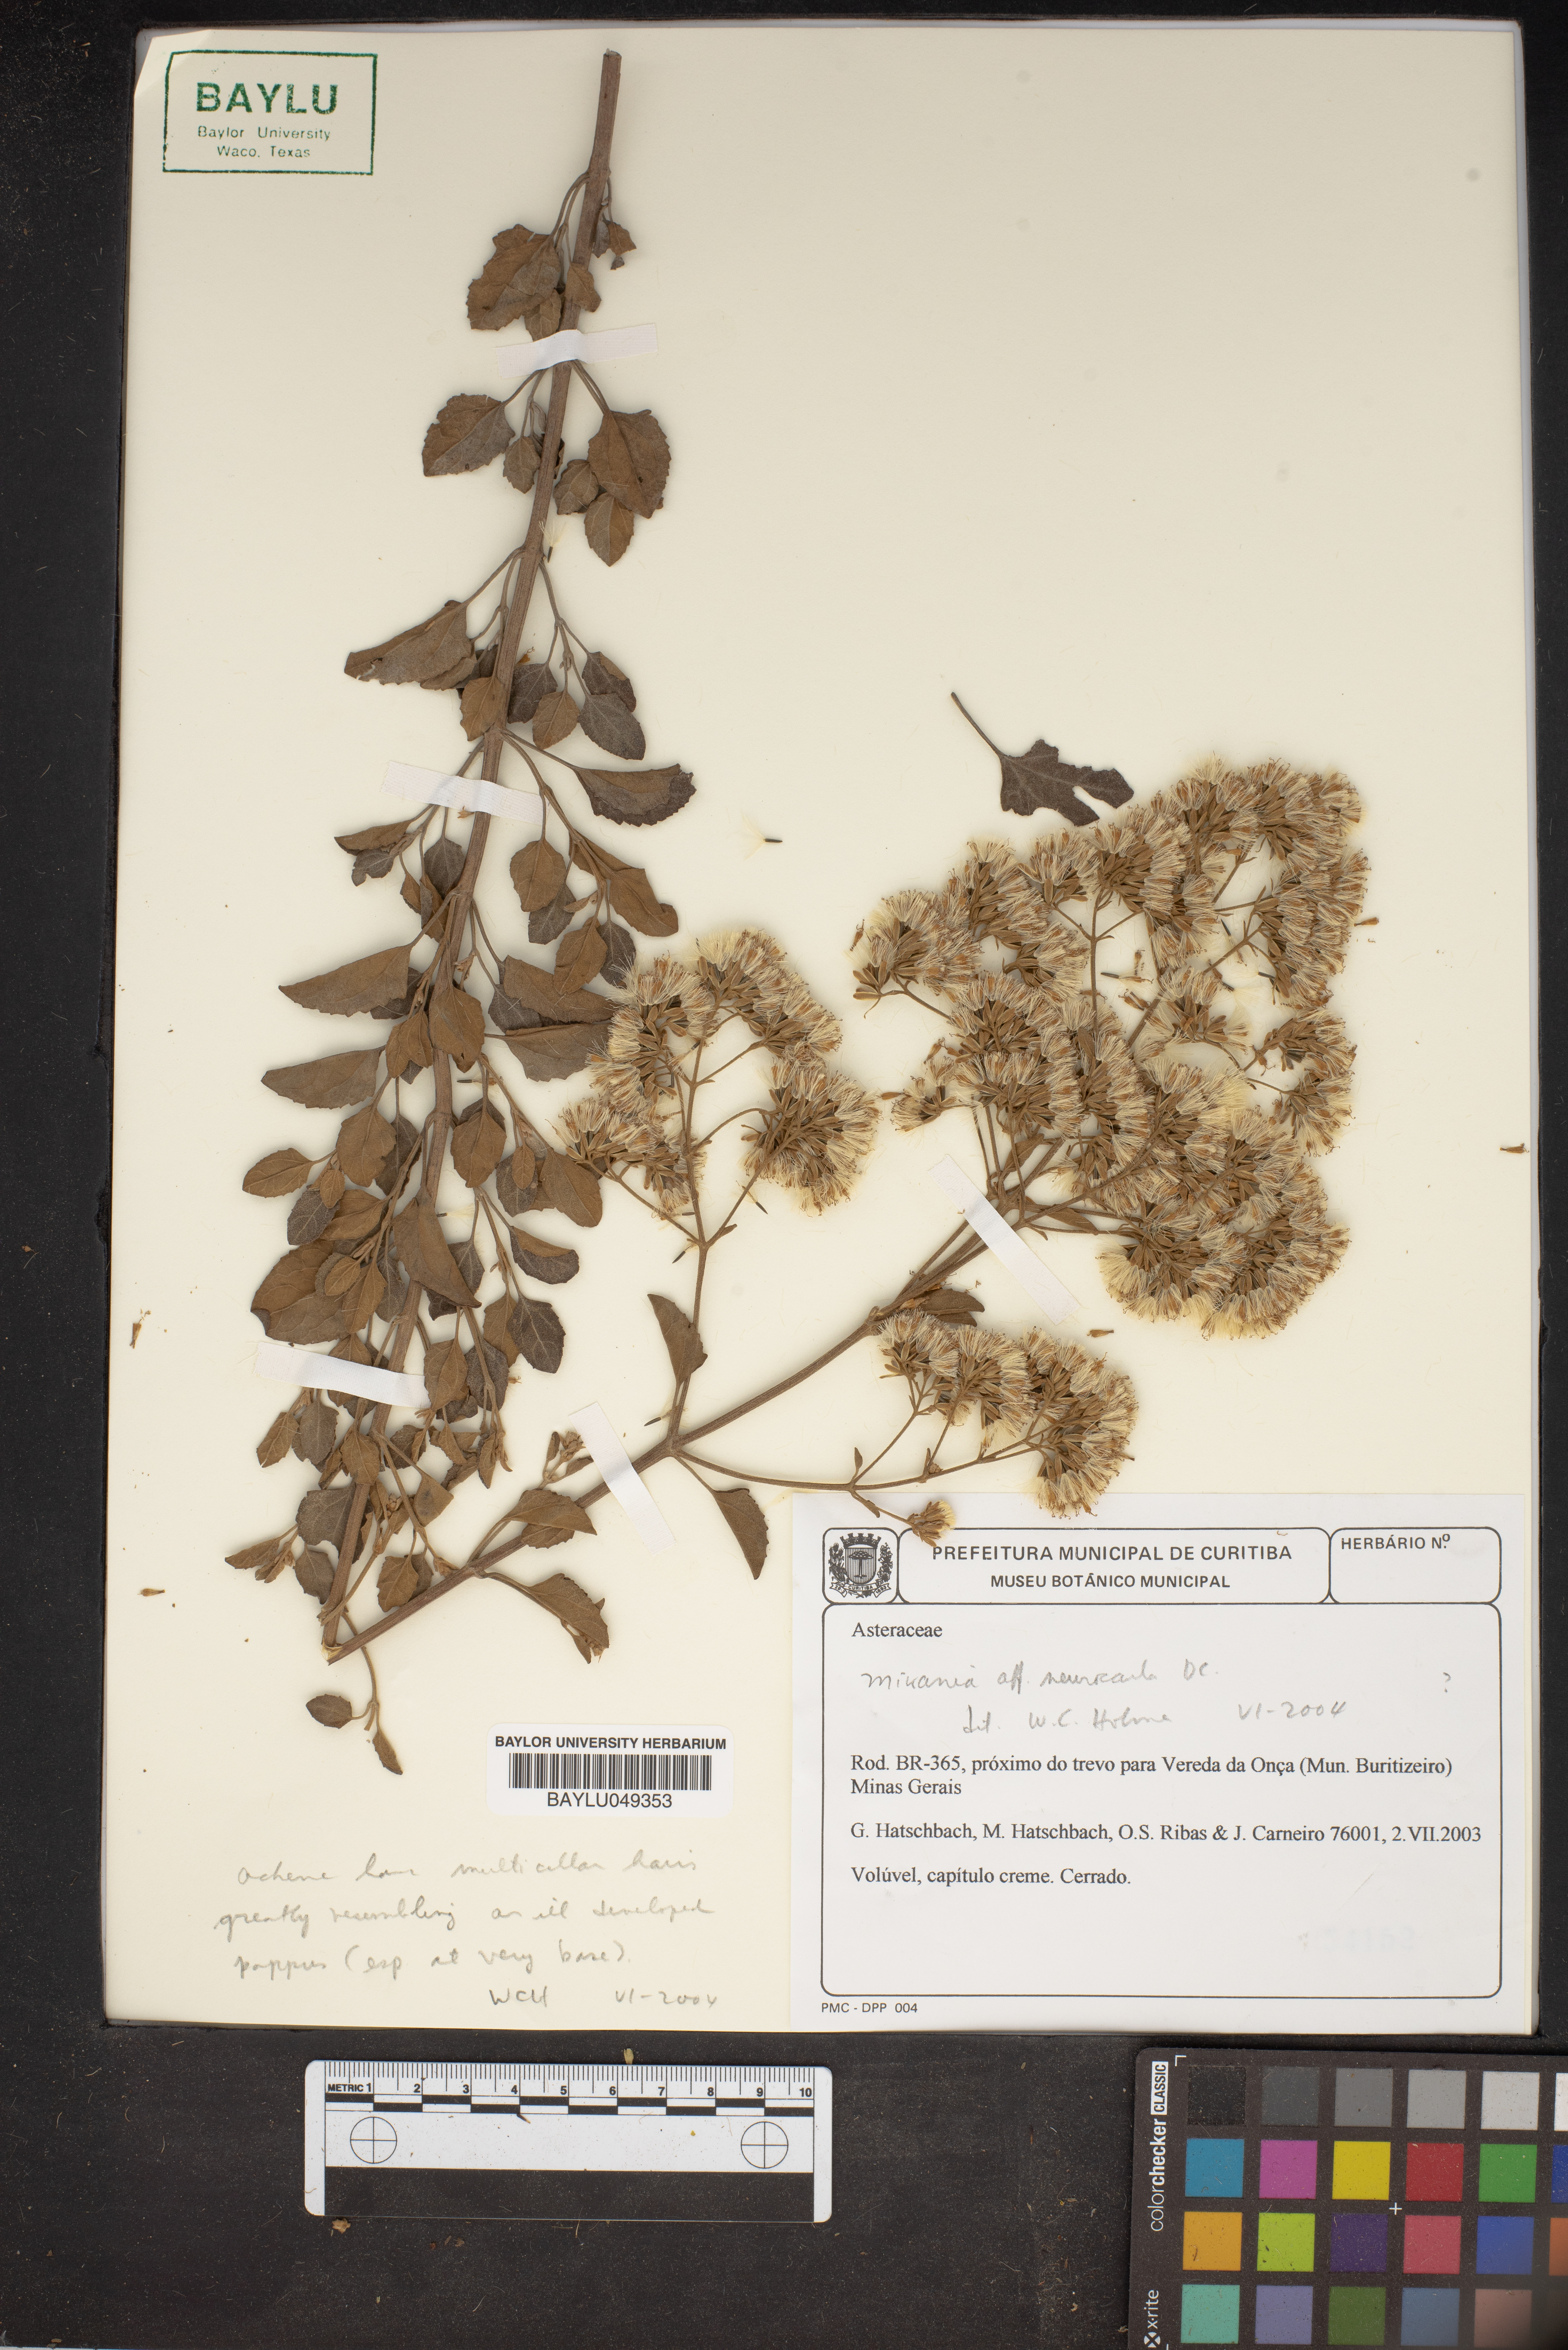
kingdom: Plantae
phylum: Tracheophyta
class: Magnoliopsida
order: Asterales
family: Asteraceae
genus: Mikania
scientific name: Mikania
